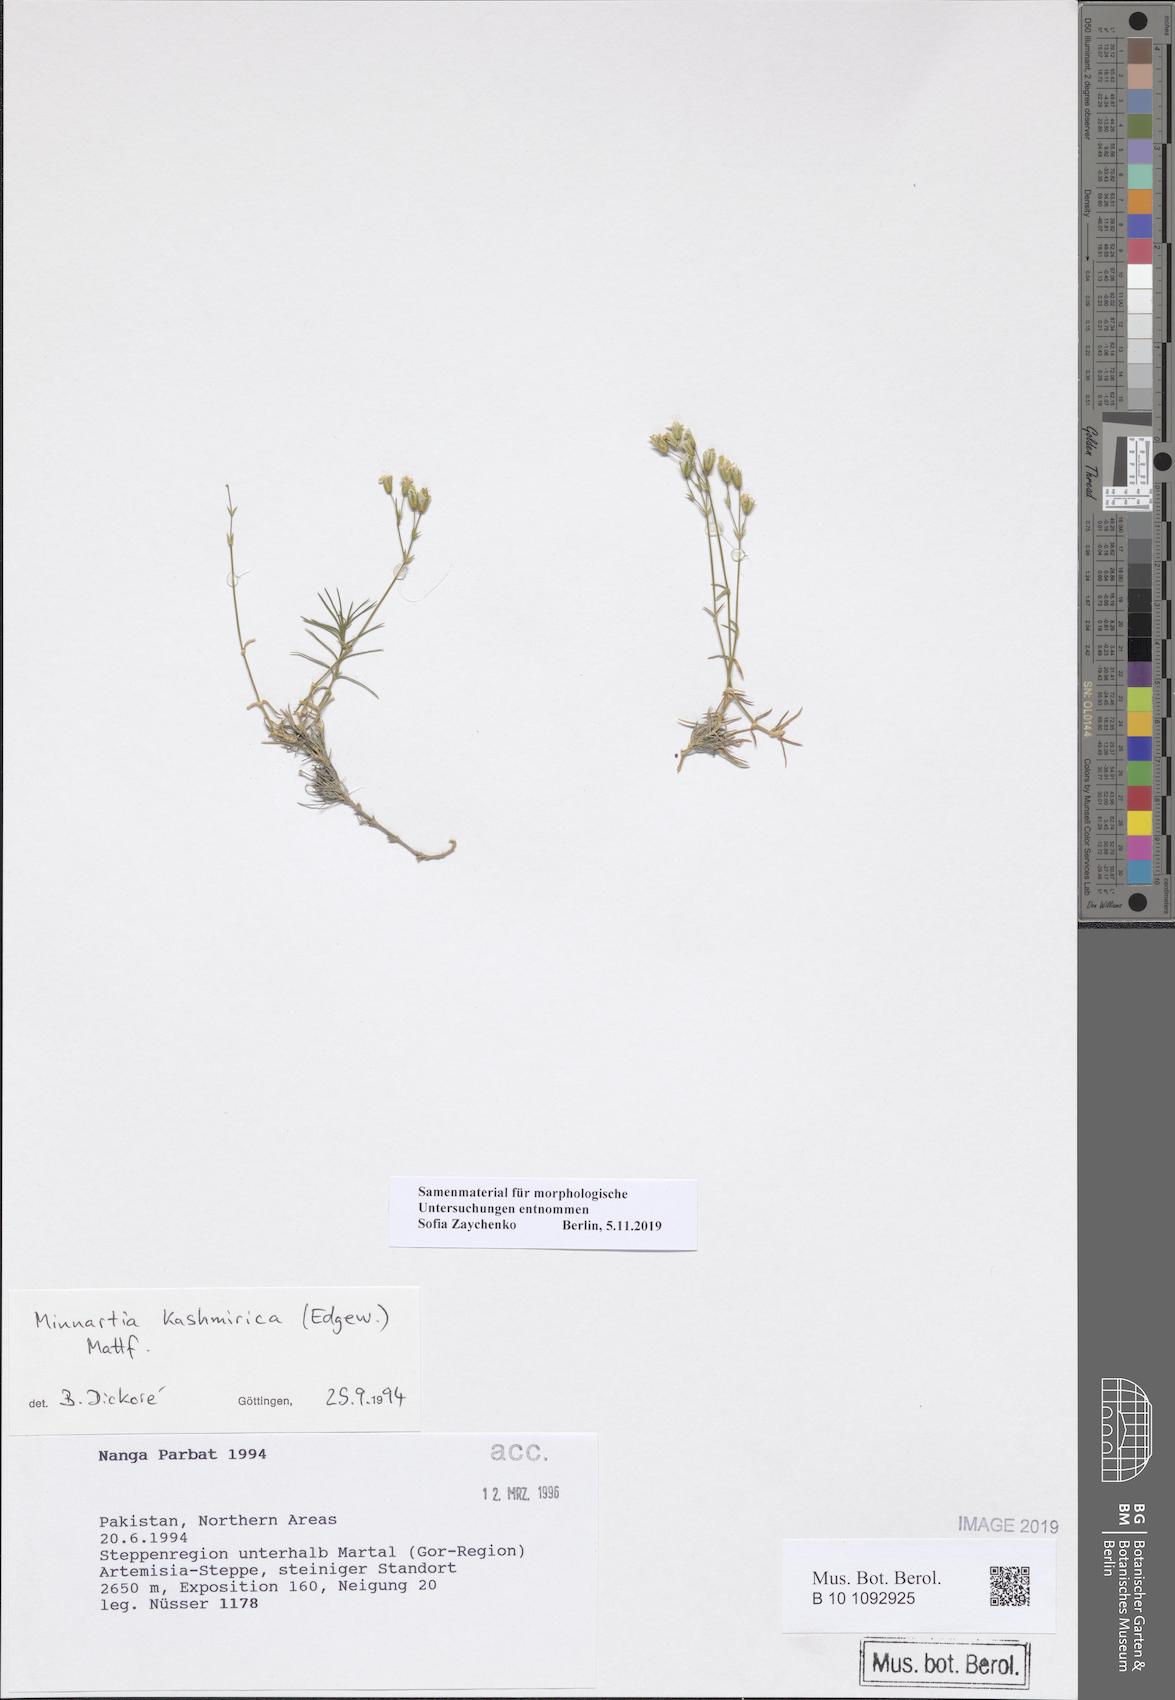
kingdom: Plantae
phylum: Tracheophyta
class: Magnoliopsida
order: Caryophyllales
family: Caryophyllaceae
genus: Sabulina
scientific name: Sabulina kashmirica
